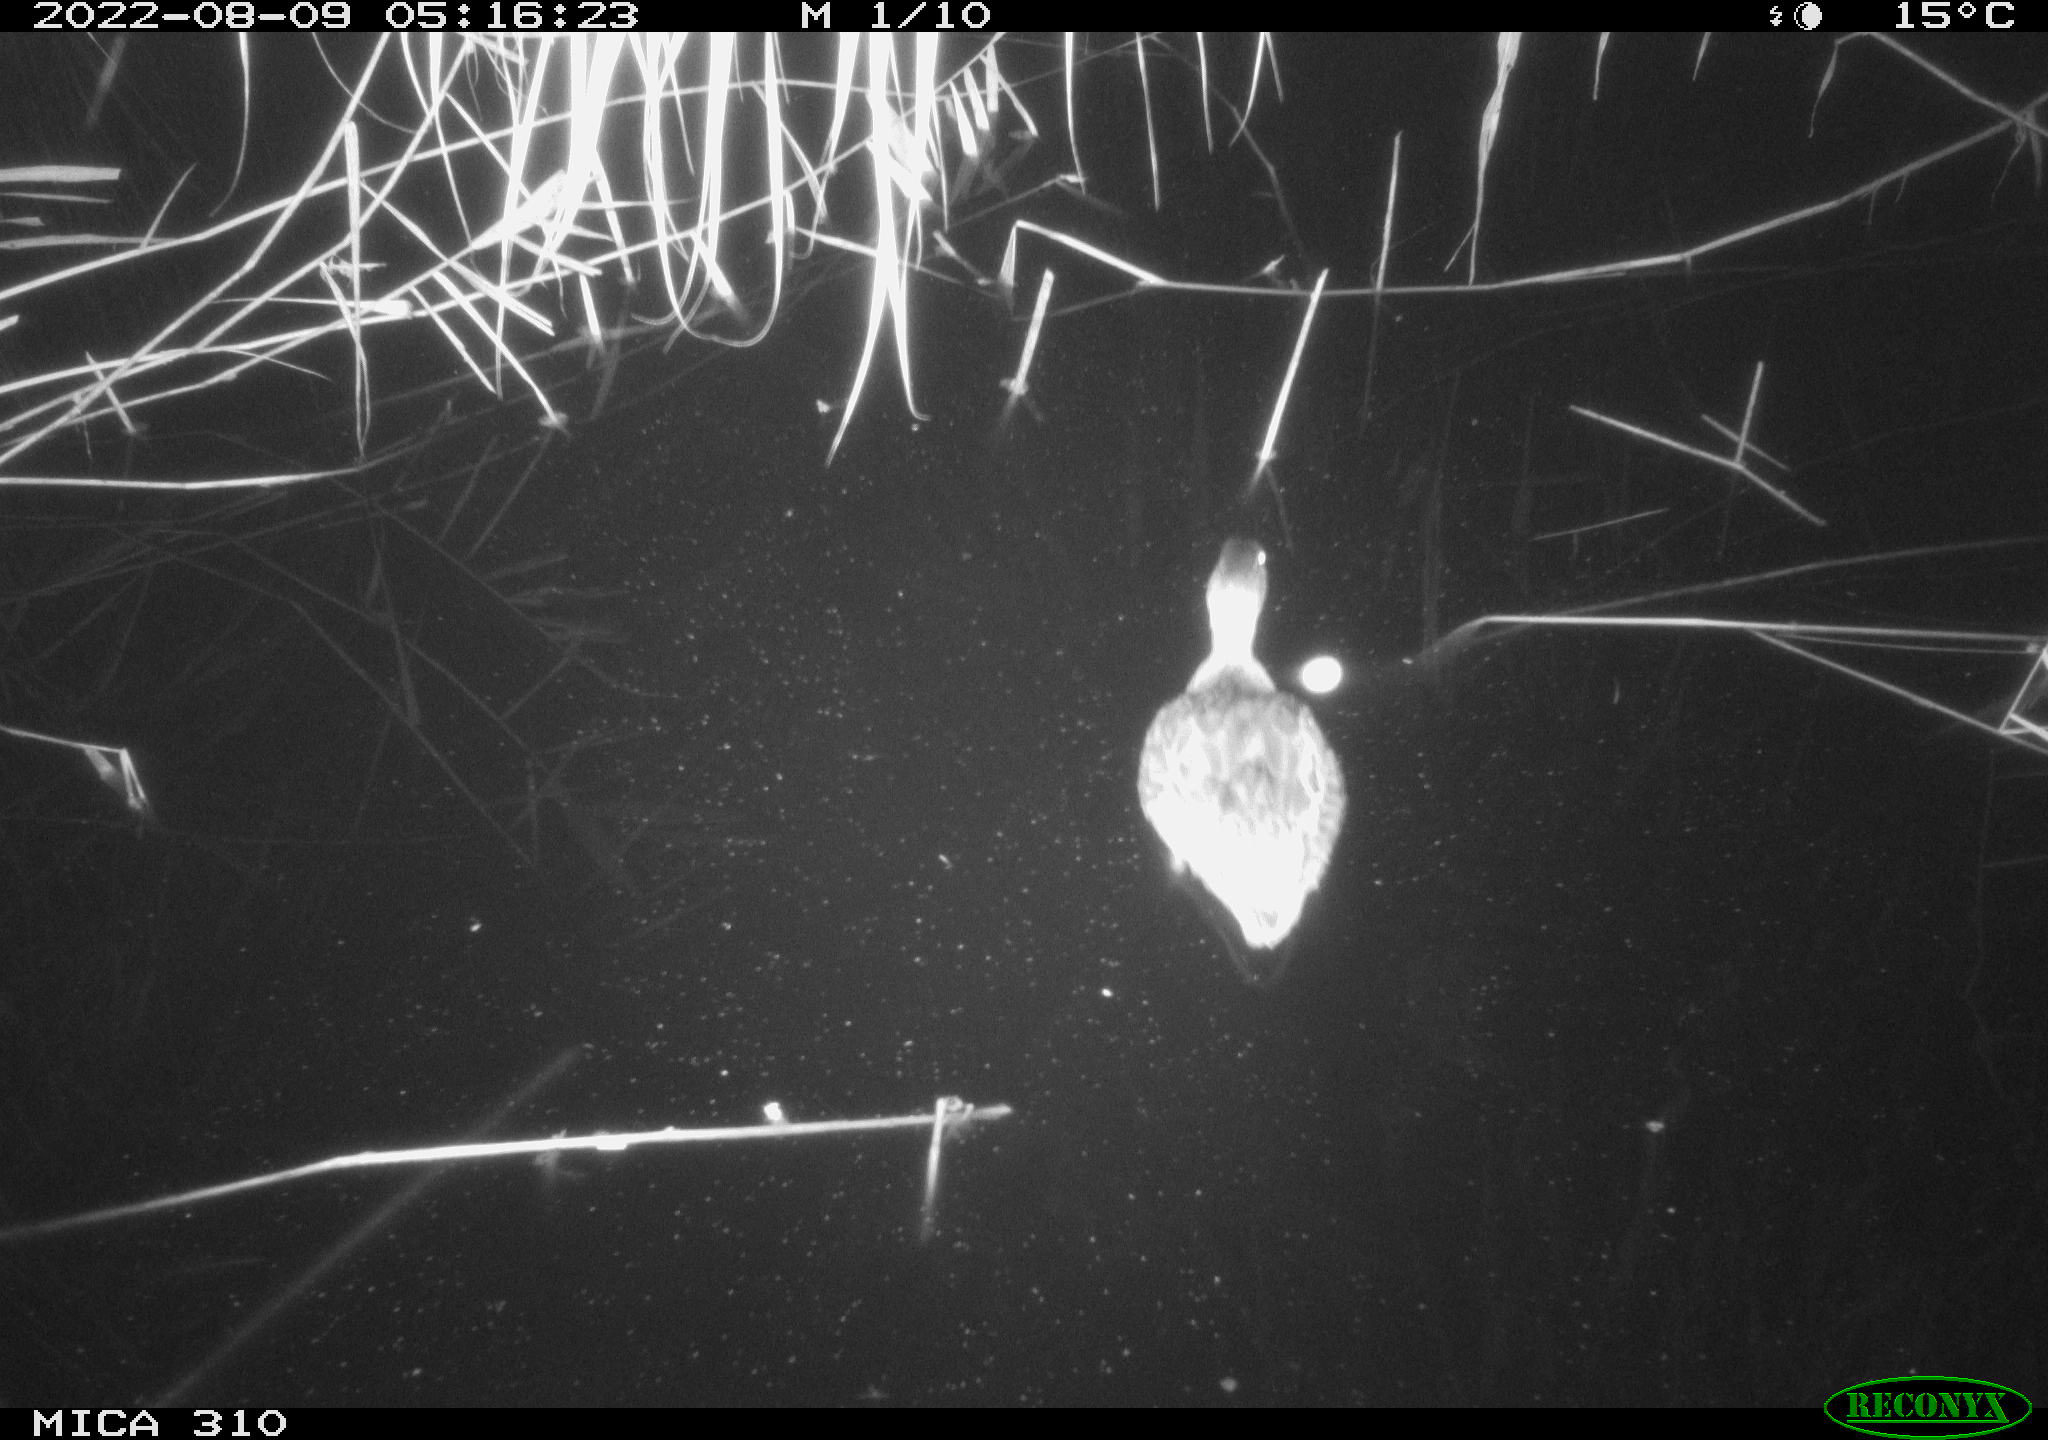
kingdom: Animalia
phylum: Chordata
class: Aves
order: Gruiformes
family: Rallidae
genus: Fulica
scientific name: Fulica atra
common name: Eurasian coot
